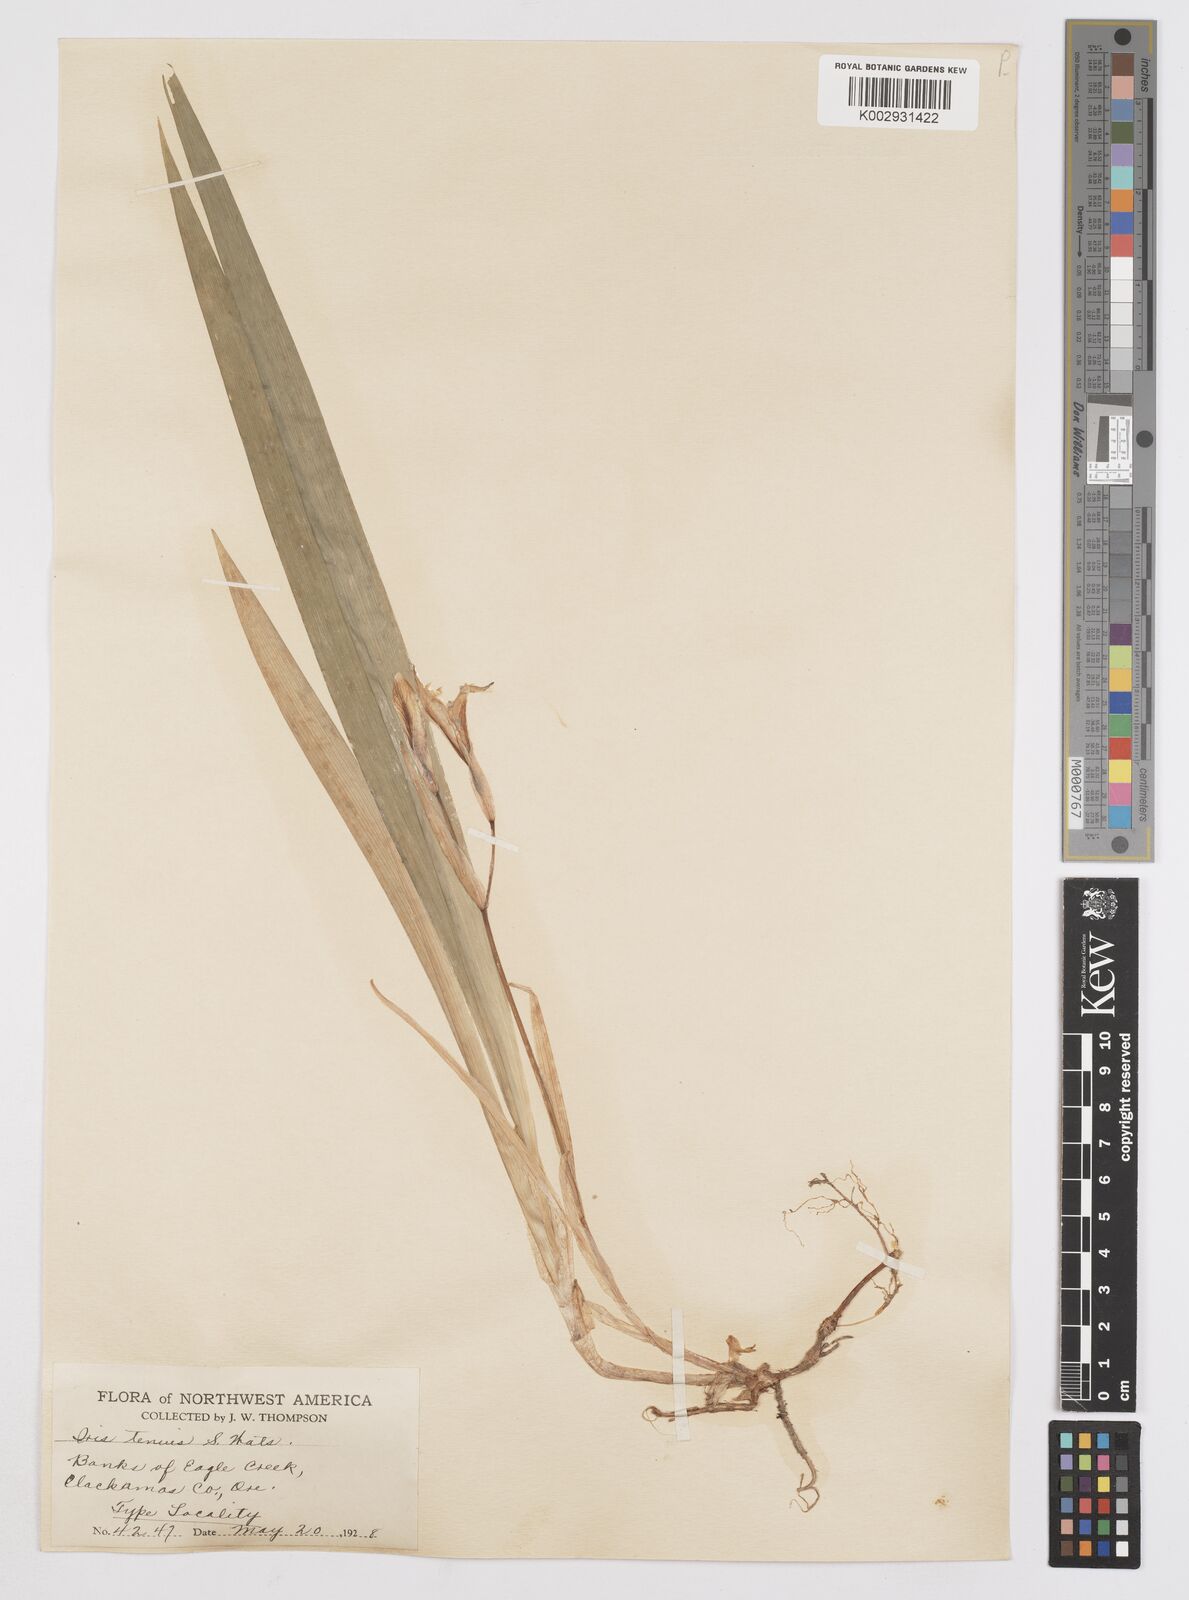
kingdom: Plantae
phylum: Tracheophyta
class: Liliopsida
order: Asparagales
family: Iridaceae
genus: Iris
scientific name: Iris tenuis
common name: Clackamas iris
